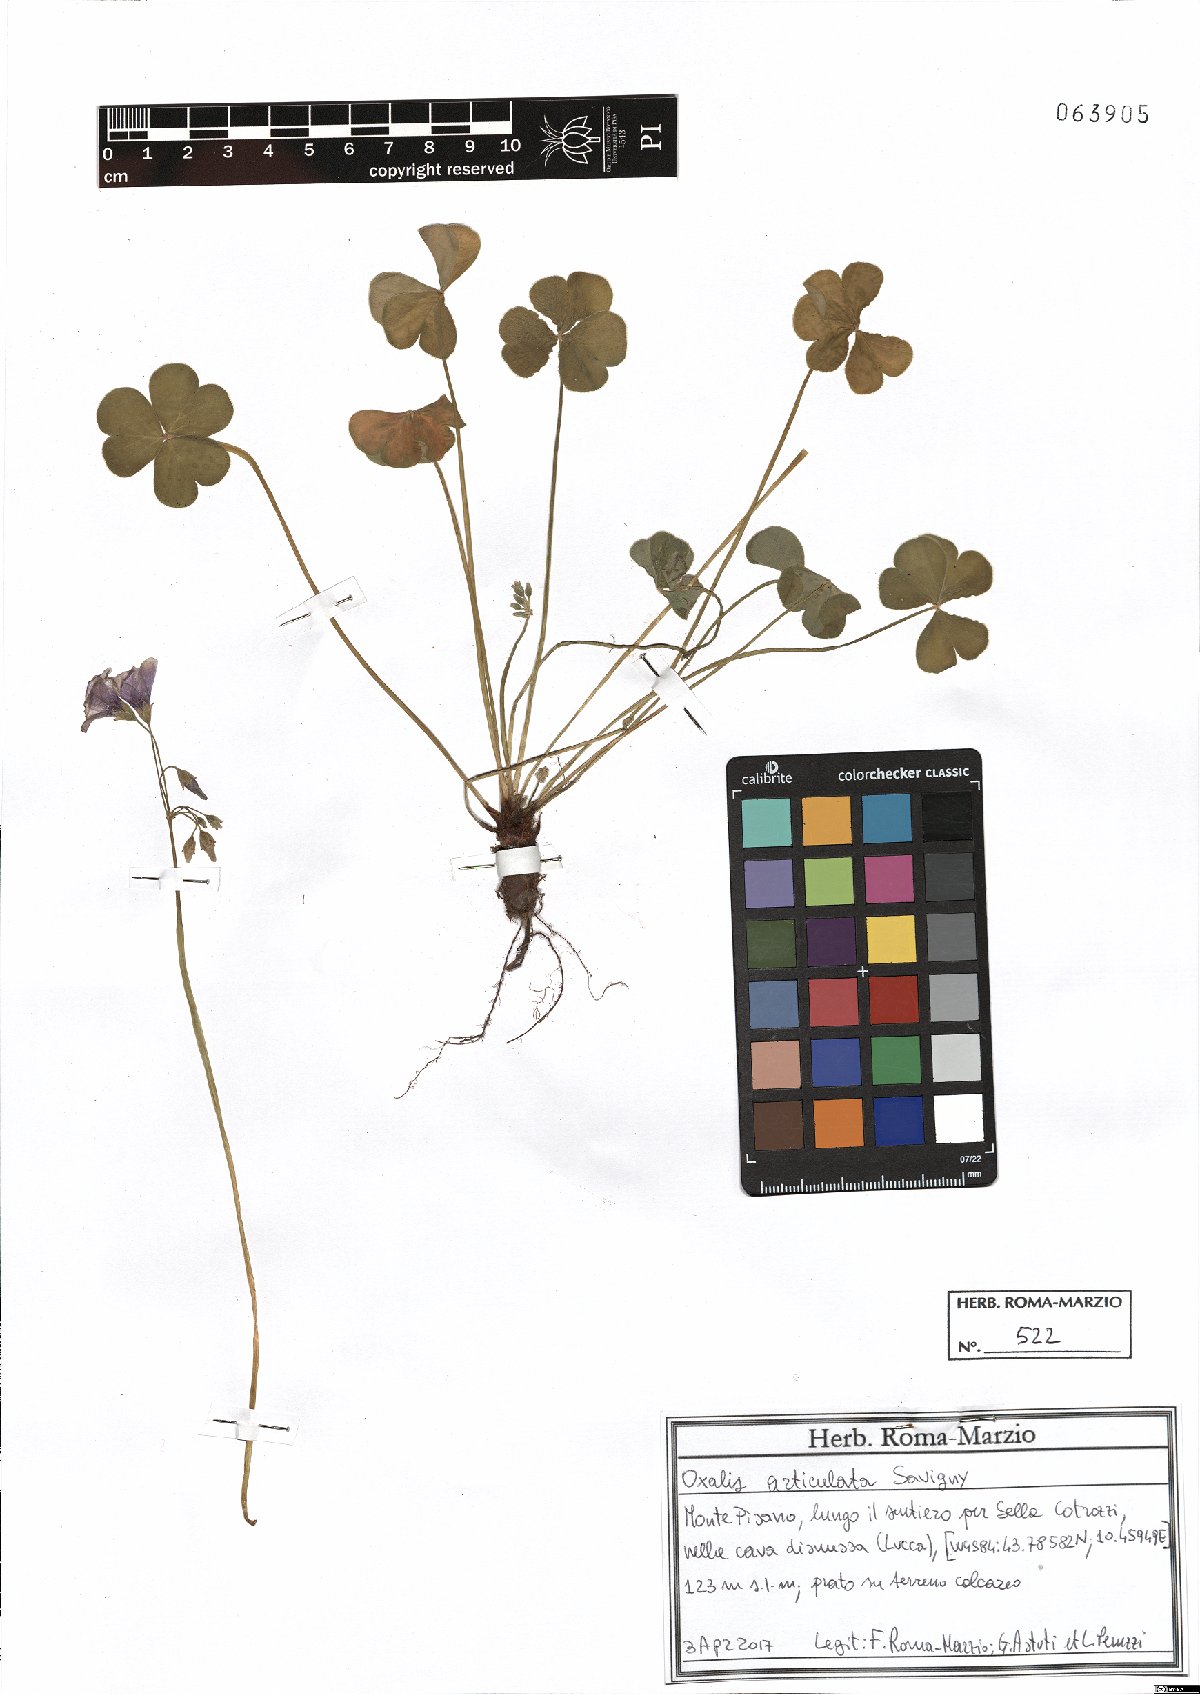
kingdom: Plantae
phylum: Tracheophyta
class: Magnoliopsida
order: Oxalidales
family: Oxalidaceae
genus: Oxalis
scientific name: Oxalis articulata
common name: Pink-sorrel
